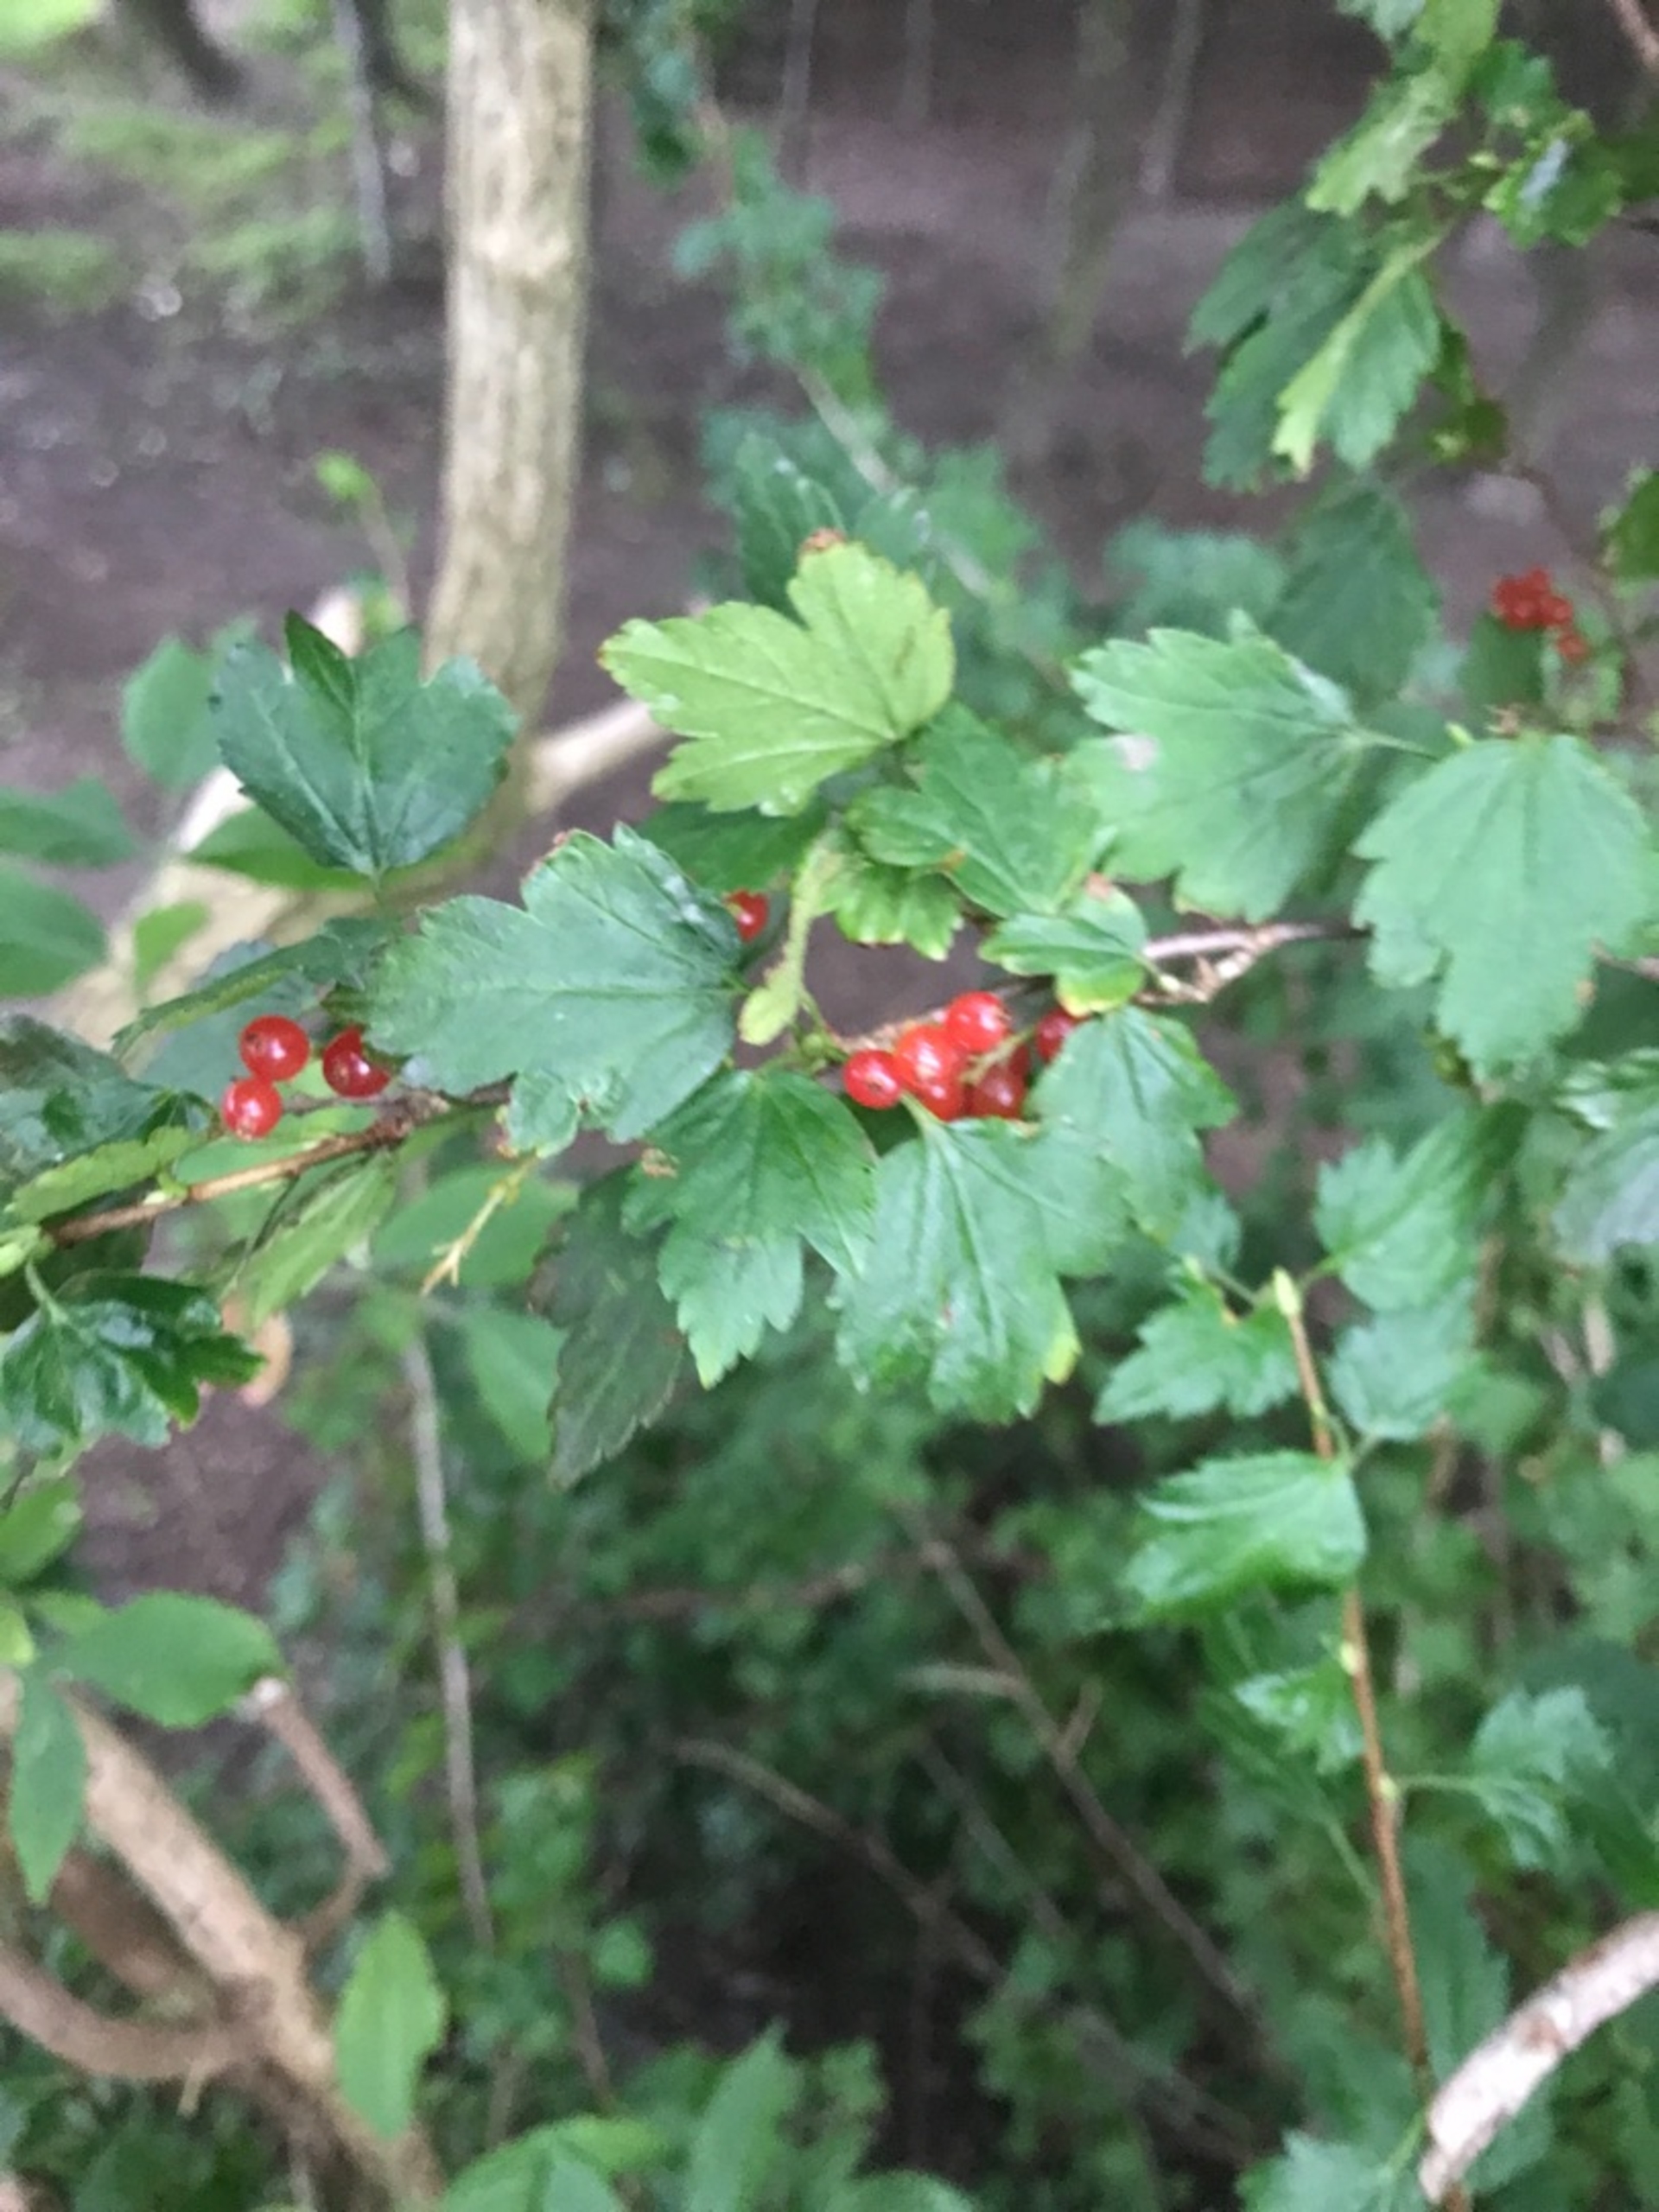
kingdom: Plantae
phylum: Tracheophyta
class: Magnoliopsida
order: Saxifragales
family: Grossulariaceae
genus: Ribes
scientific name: Ribes alpinum
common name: Fjeld-ribs
